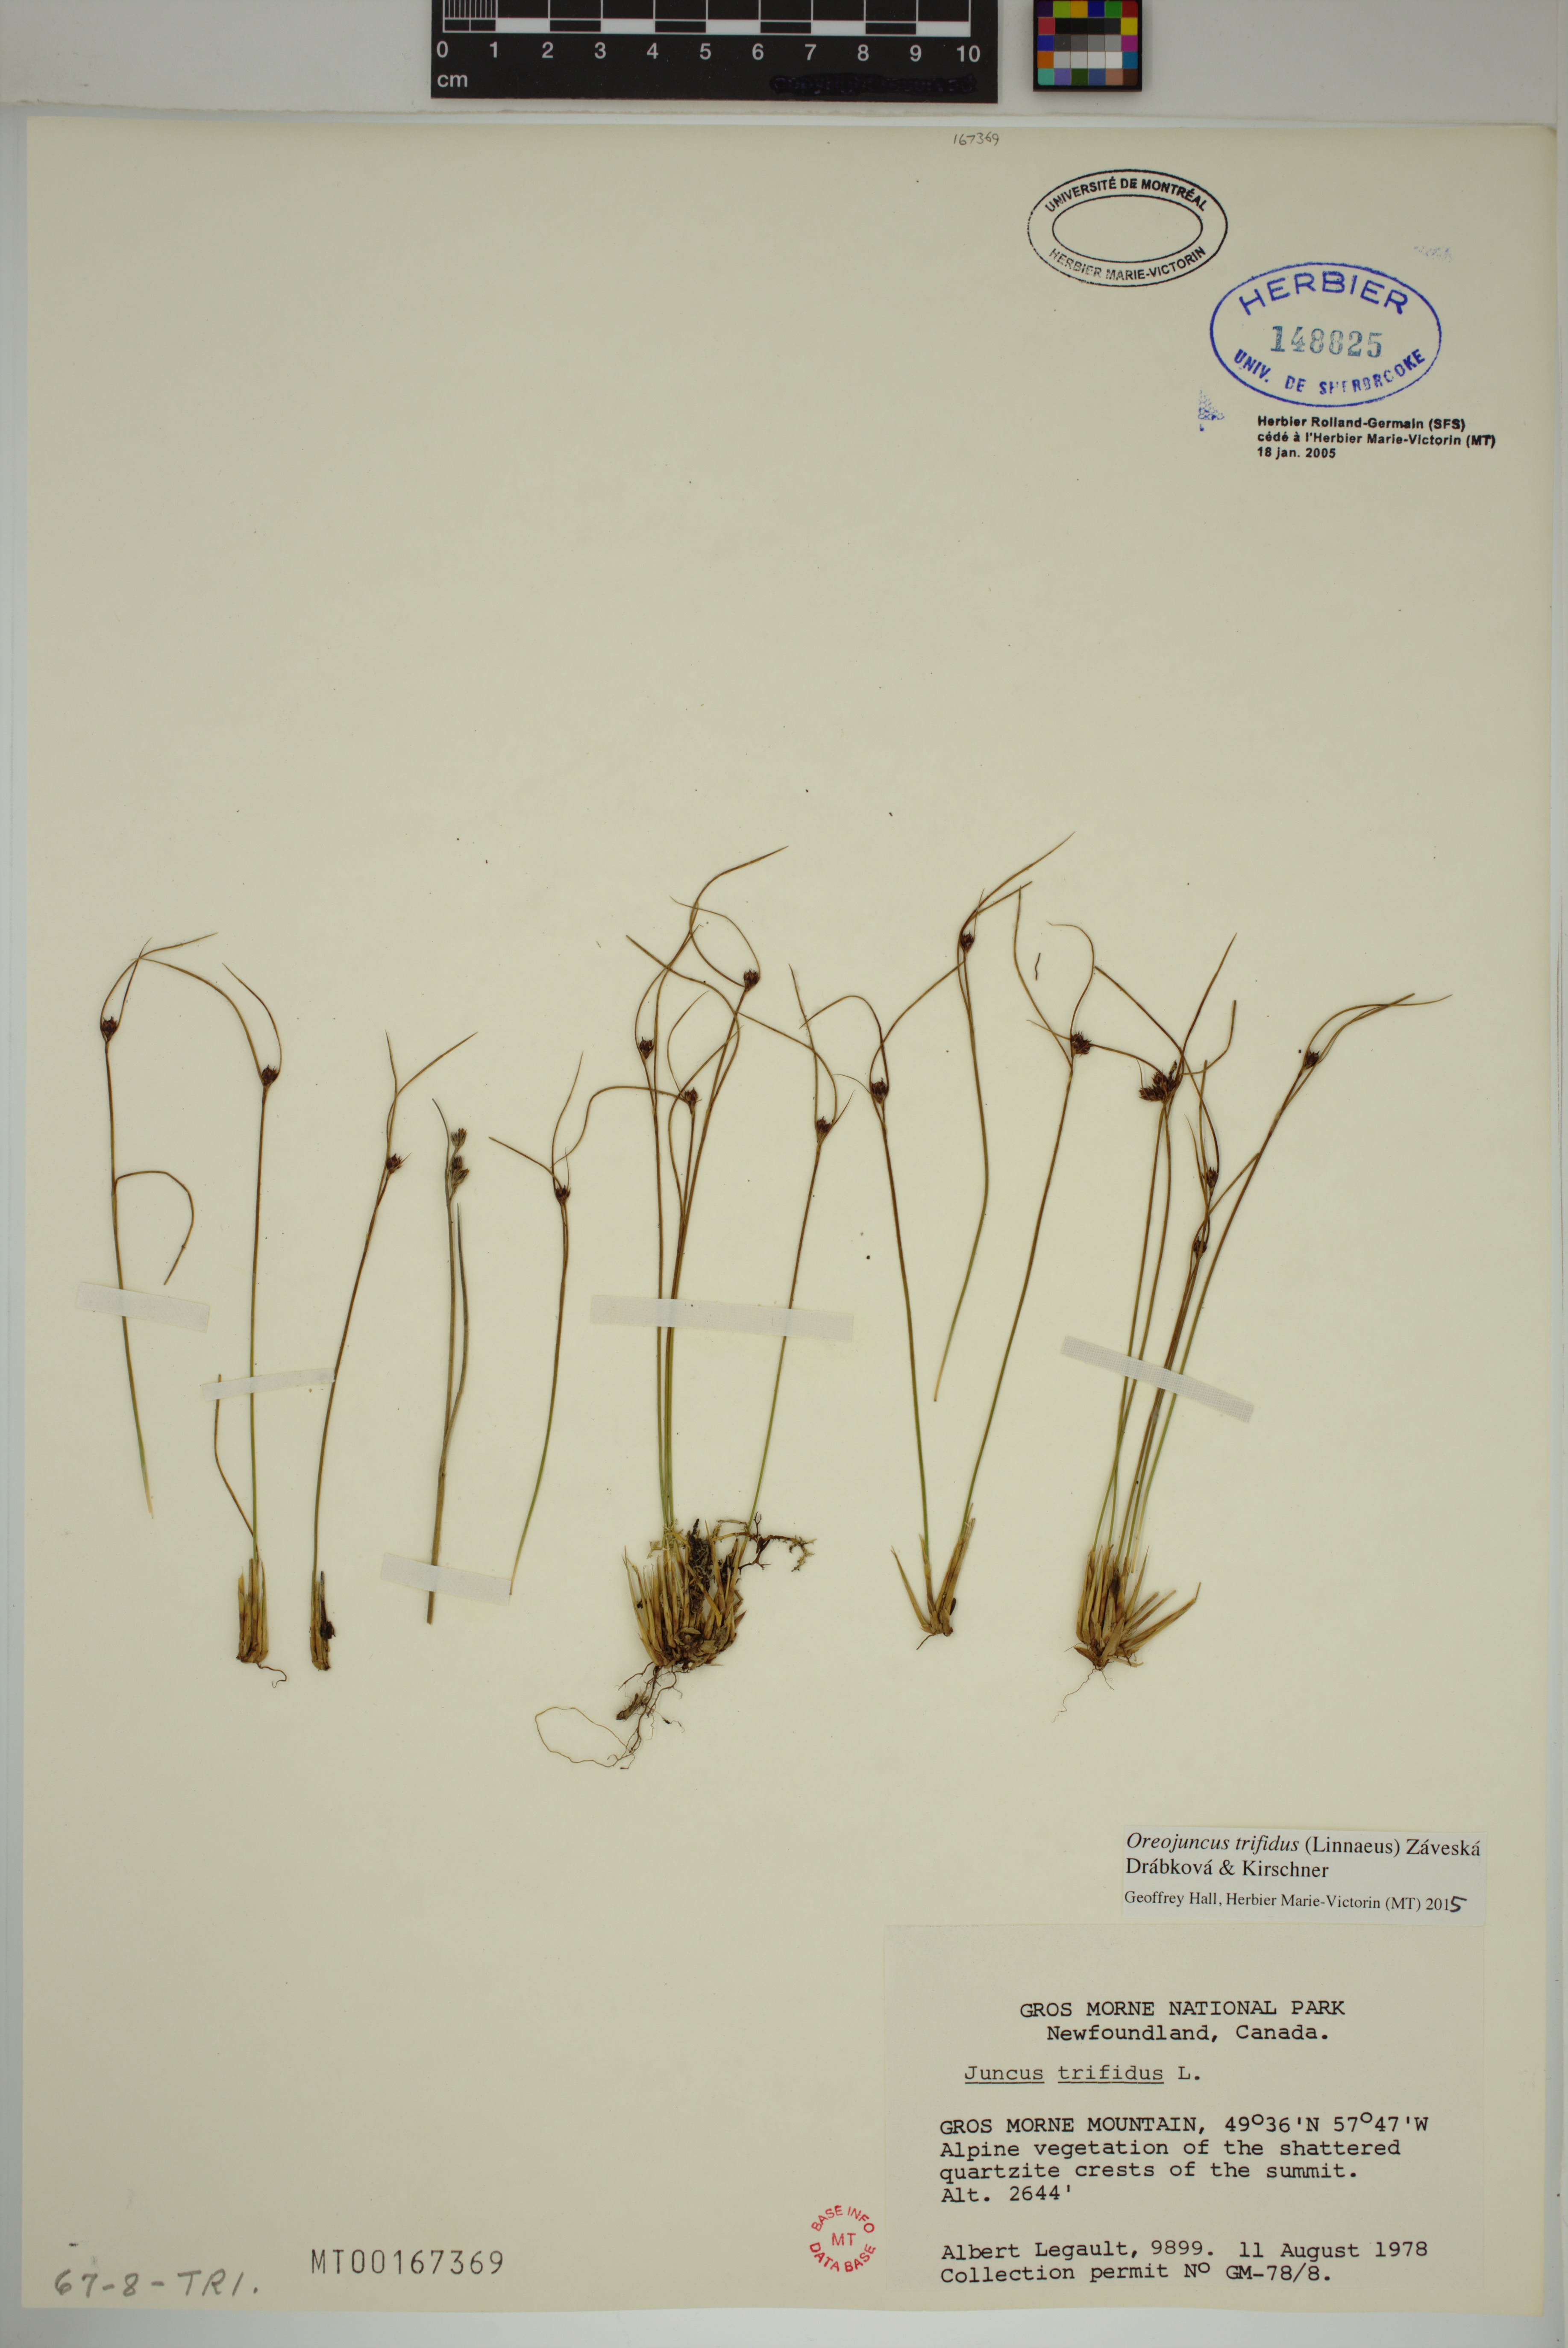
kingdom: Plantae
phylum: Tracheophyta
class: Liliopsida
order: Poales
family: Juncaceae
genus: Oreojuncus
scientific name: Oreojuncus trifidus
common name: Highland rush
